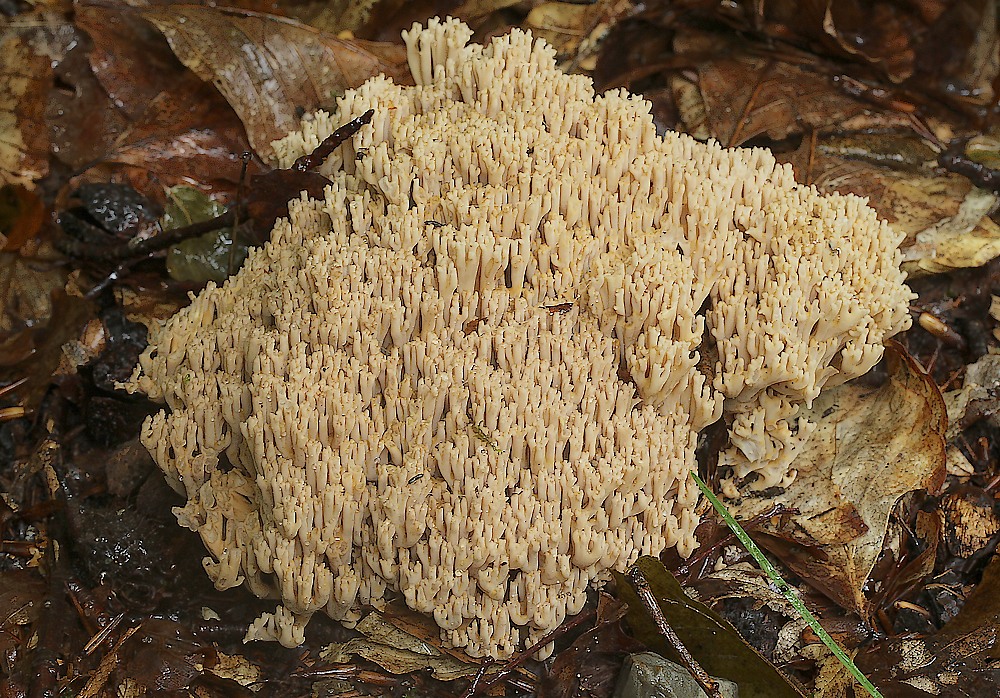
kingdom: Fungi
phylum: Basidiomycota
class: Agaricomycetes
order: Gomphales
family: Gomphaceae
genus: Ramaria
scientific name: Ramaria
